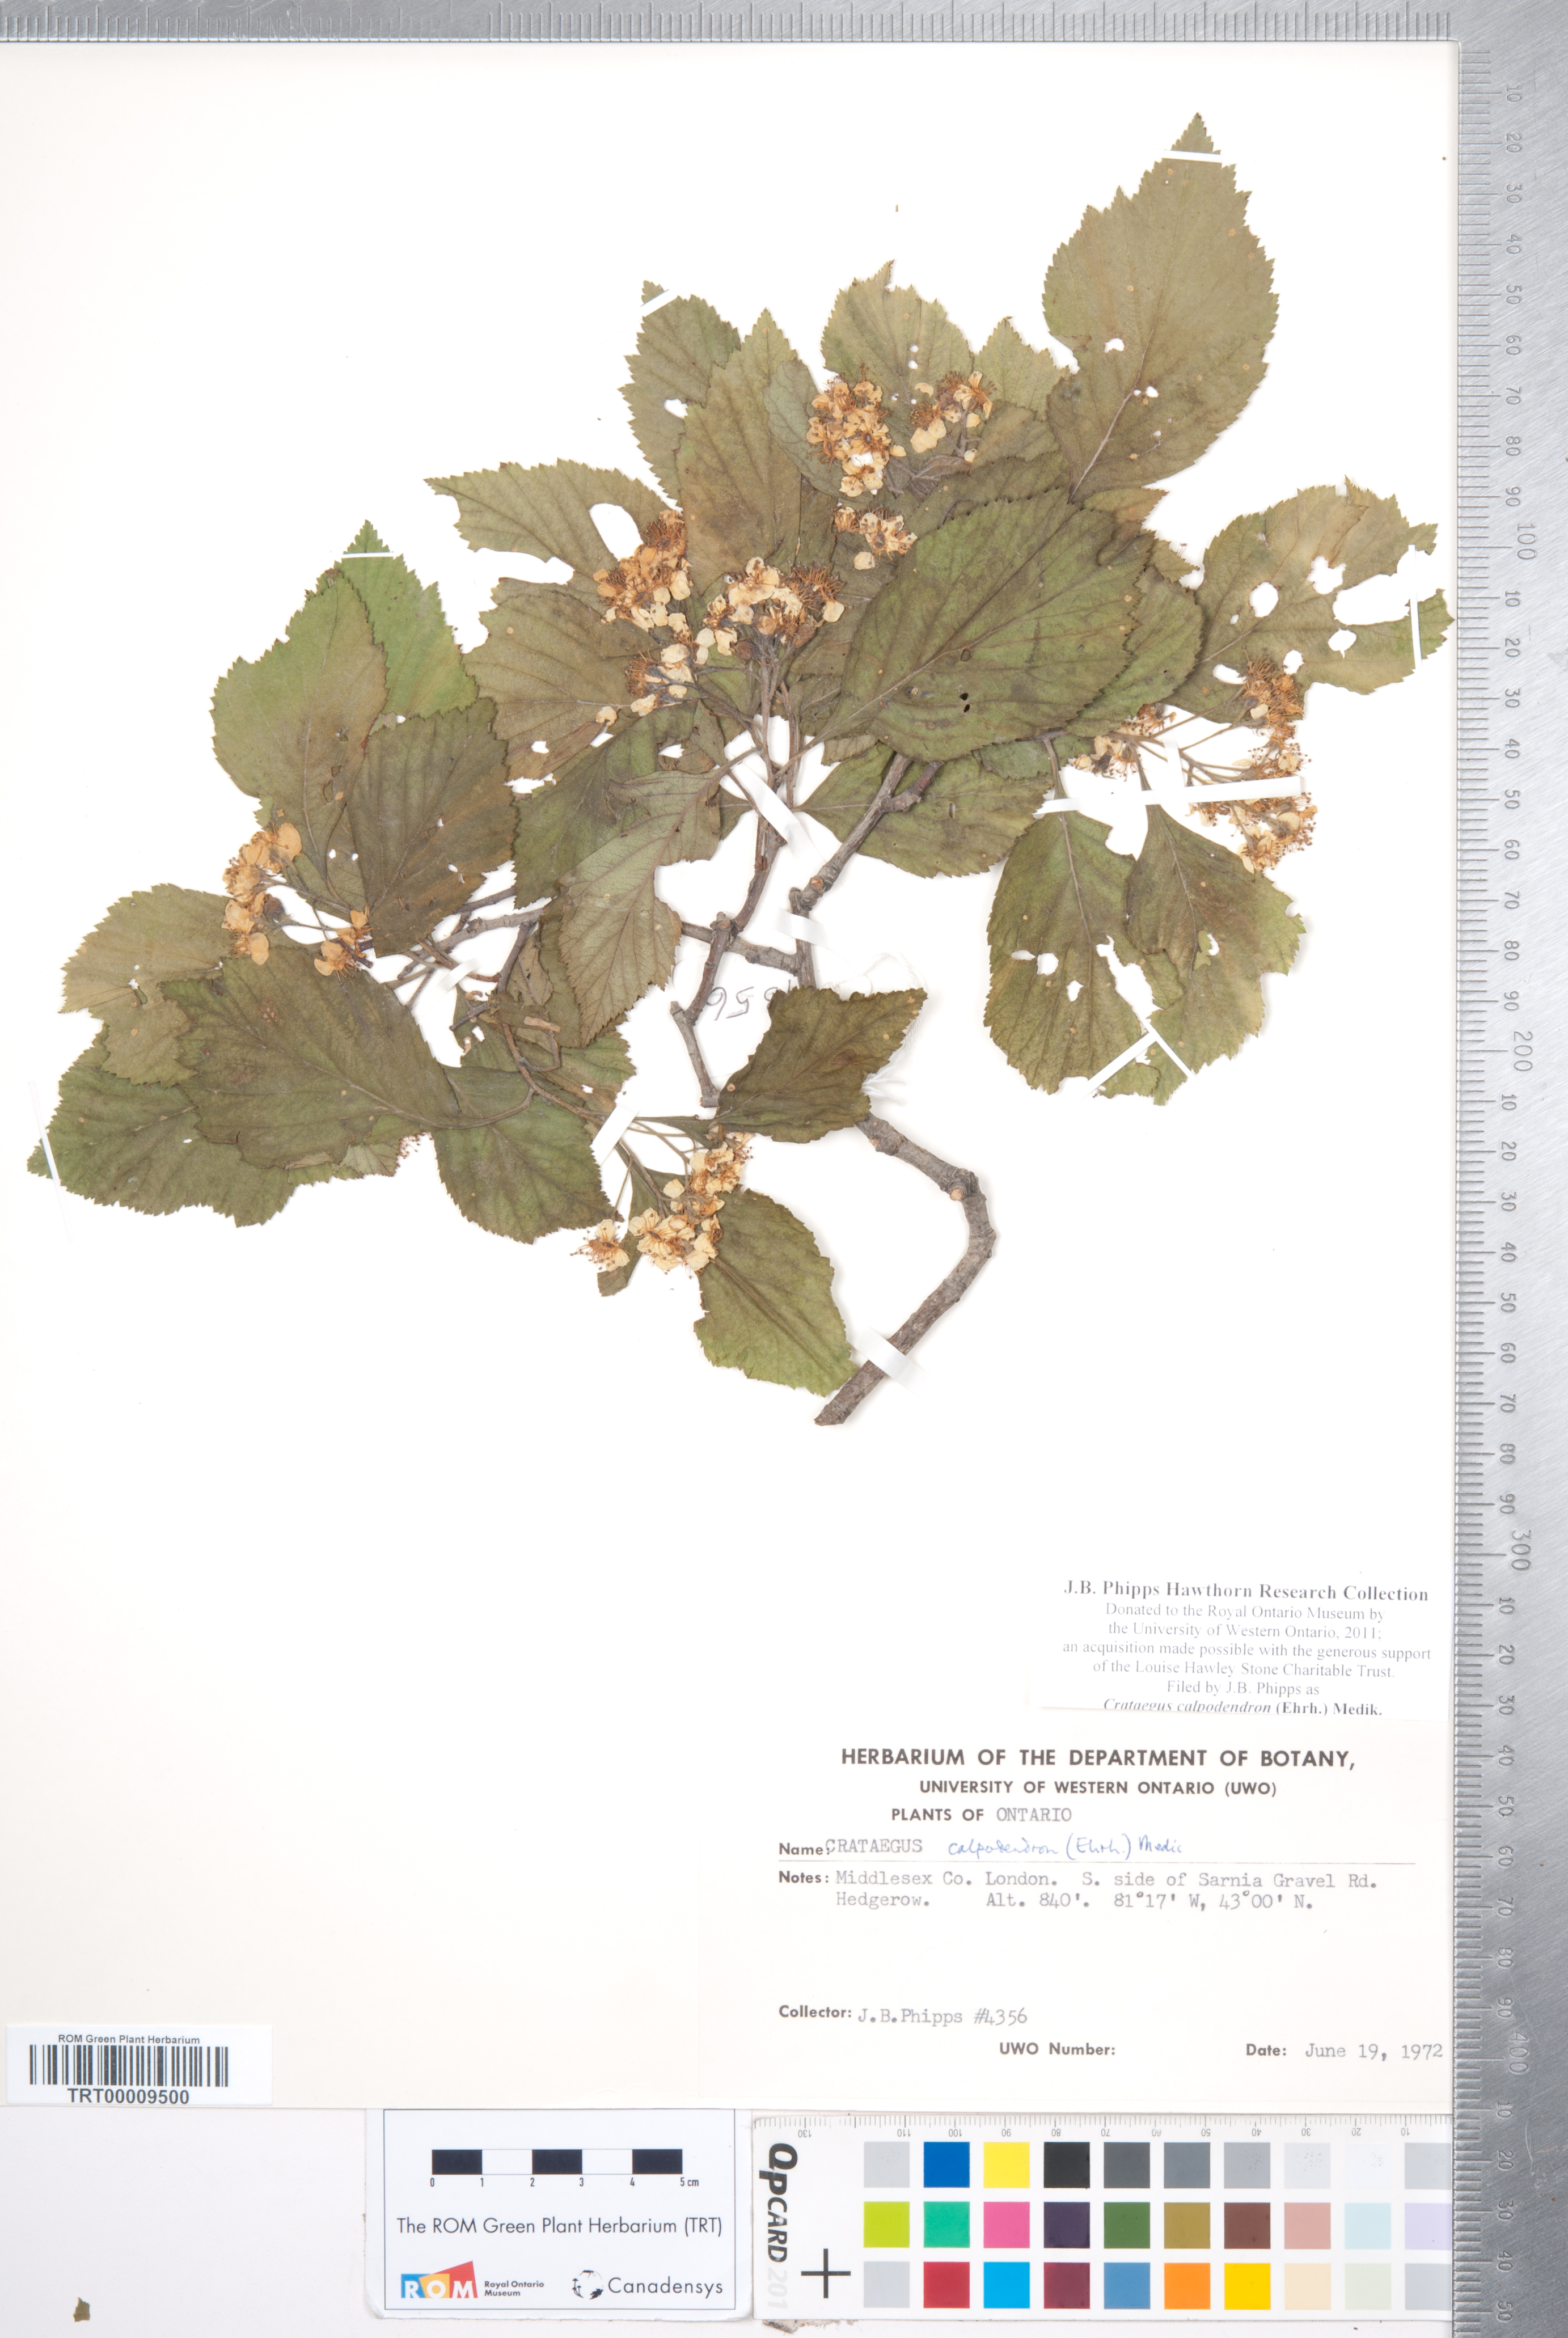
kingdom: Plantae
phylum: Tracheophyta
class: Magnoliopsida
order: Rosales
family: Rosaceae
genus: Crataegus
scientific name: Crataegus calpodendron
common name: Pear hawthorn
